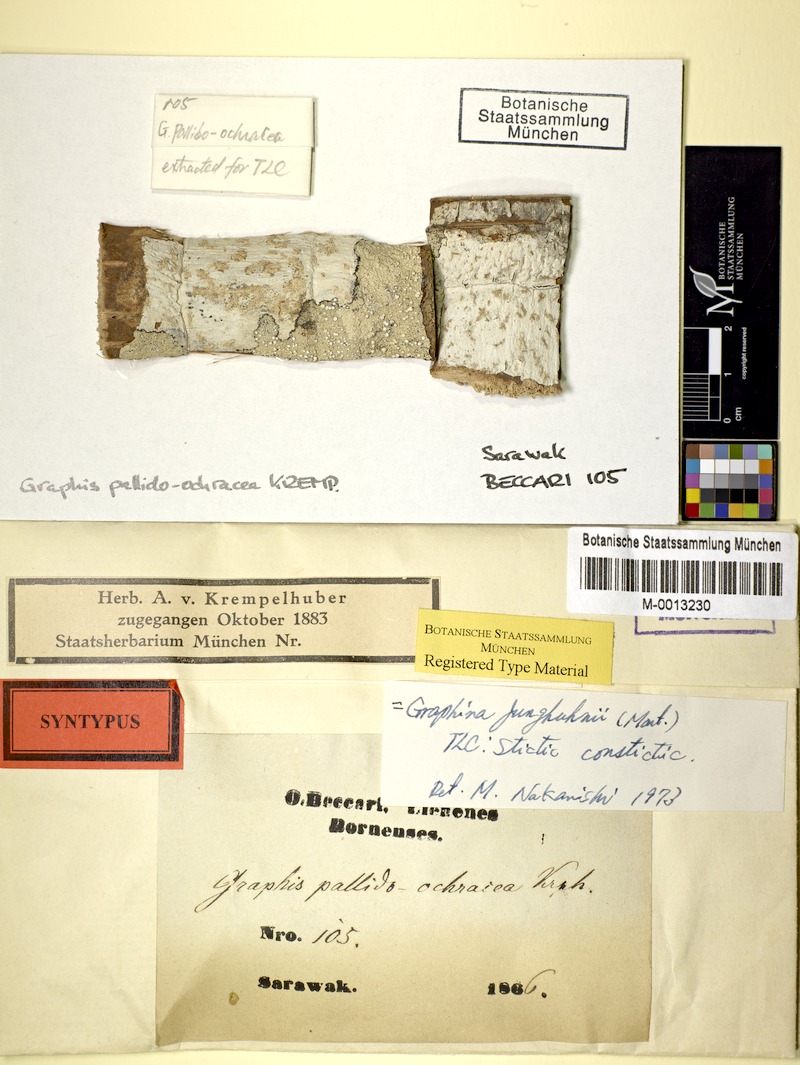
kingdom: Fungi
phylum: Ascomycota
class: Lecanoromycetes
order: Ostropales
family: Graphidaceae
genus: Diorygma
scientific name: Diorygma hieroglyphicum
